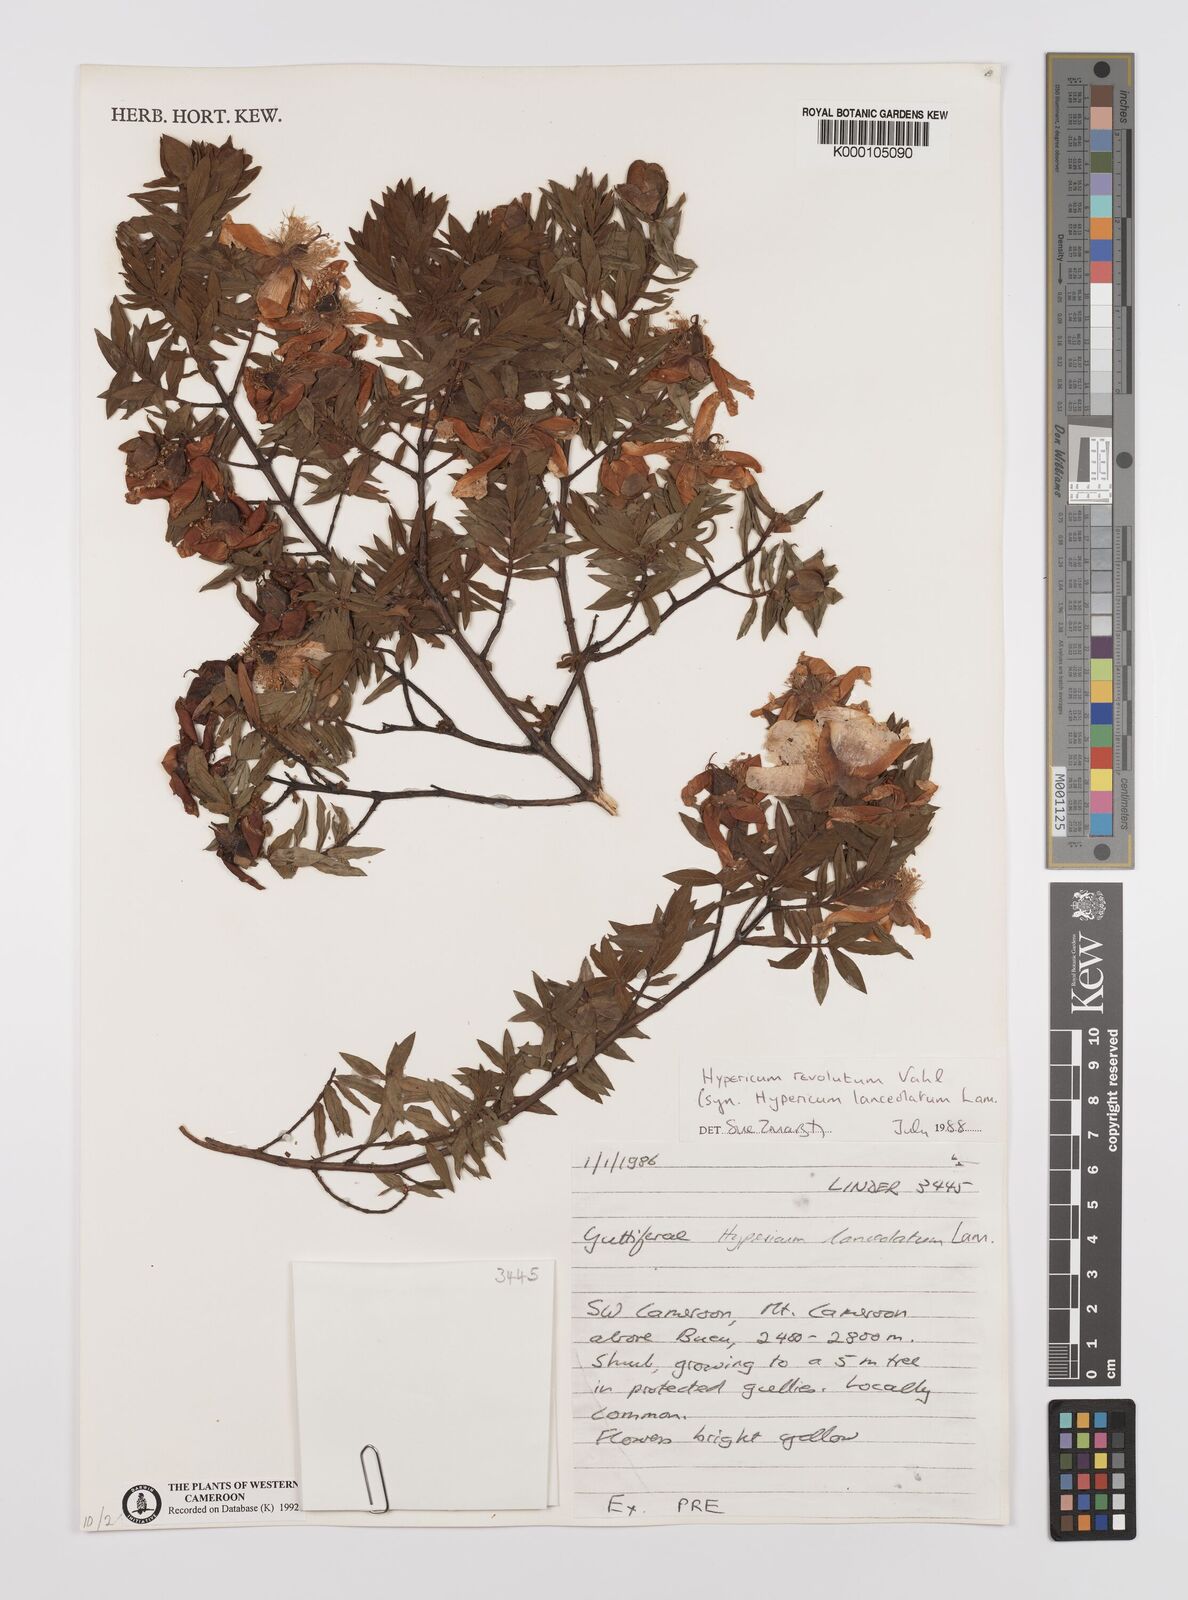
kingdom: Plantae
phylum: Tracheophyta
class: Magnoliopsida
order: Malpighiales
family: Hypericaceae
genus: Hypericum
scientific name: Hypericum revolutum
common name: Curry bush
